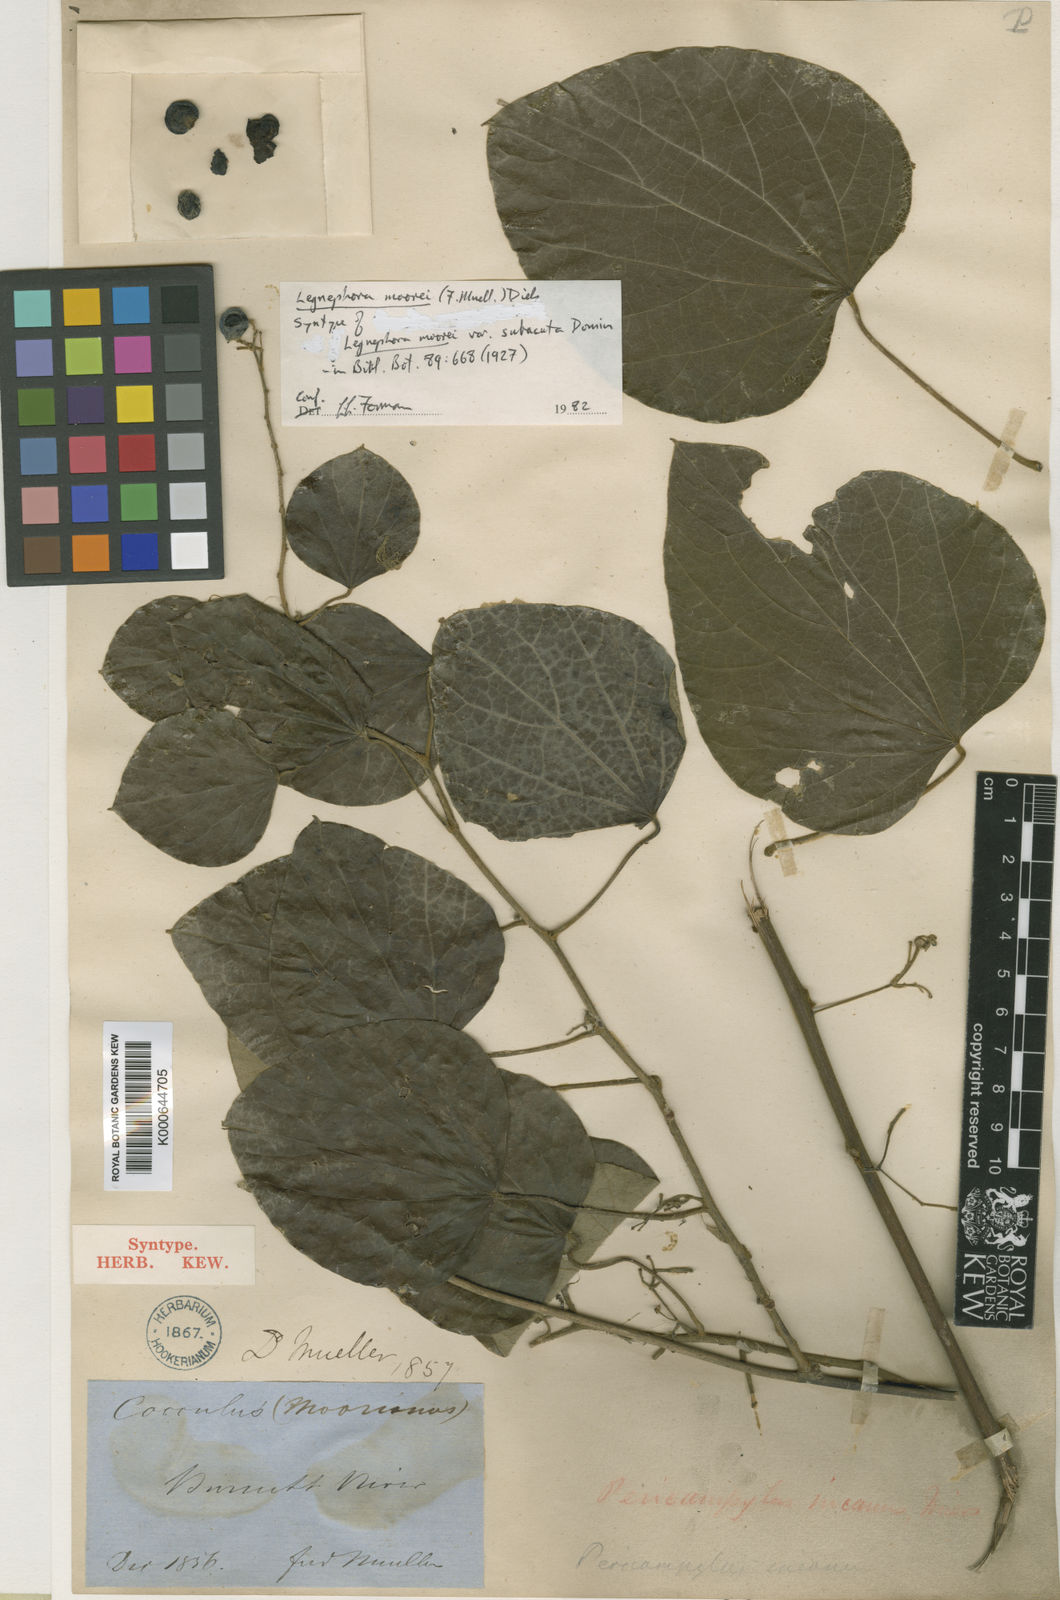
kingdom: Plantae
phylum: Tracheophyta
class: Magnoliopsida
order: Ranunculales
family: Menispermaceae
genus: Legnephora
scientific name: Legnephora
